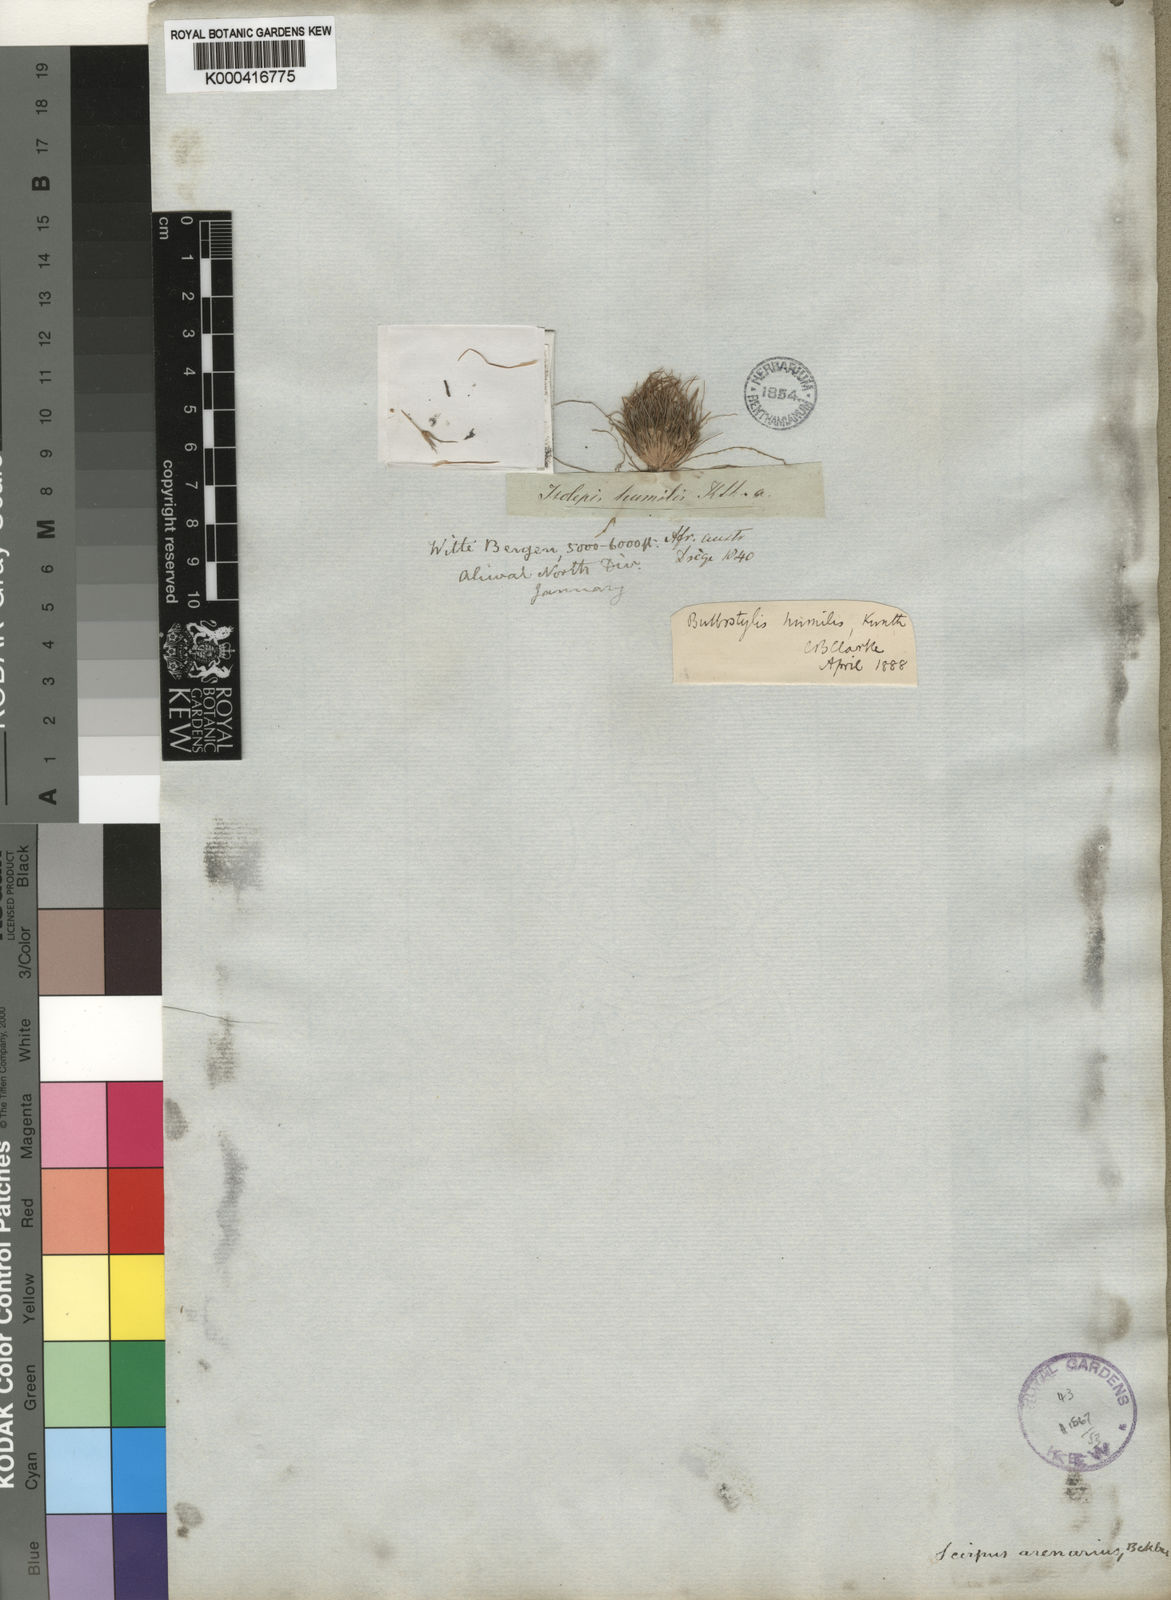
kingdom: Plantae
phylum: Tracheophyta
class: Liliopsida
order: Poales
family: Cyperaceae
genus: Bulbostylis
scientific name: Bulbostylis humilis
